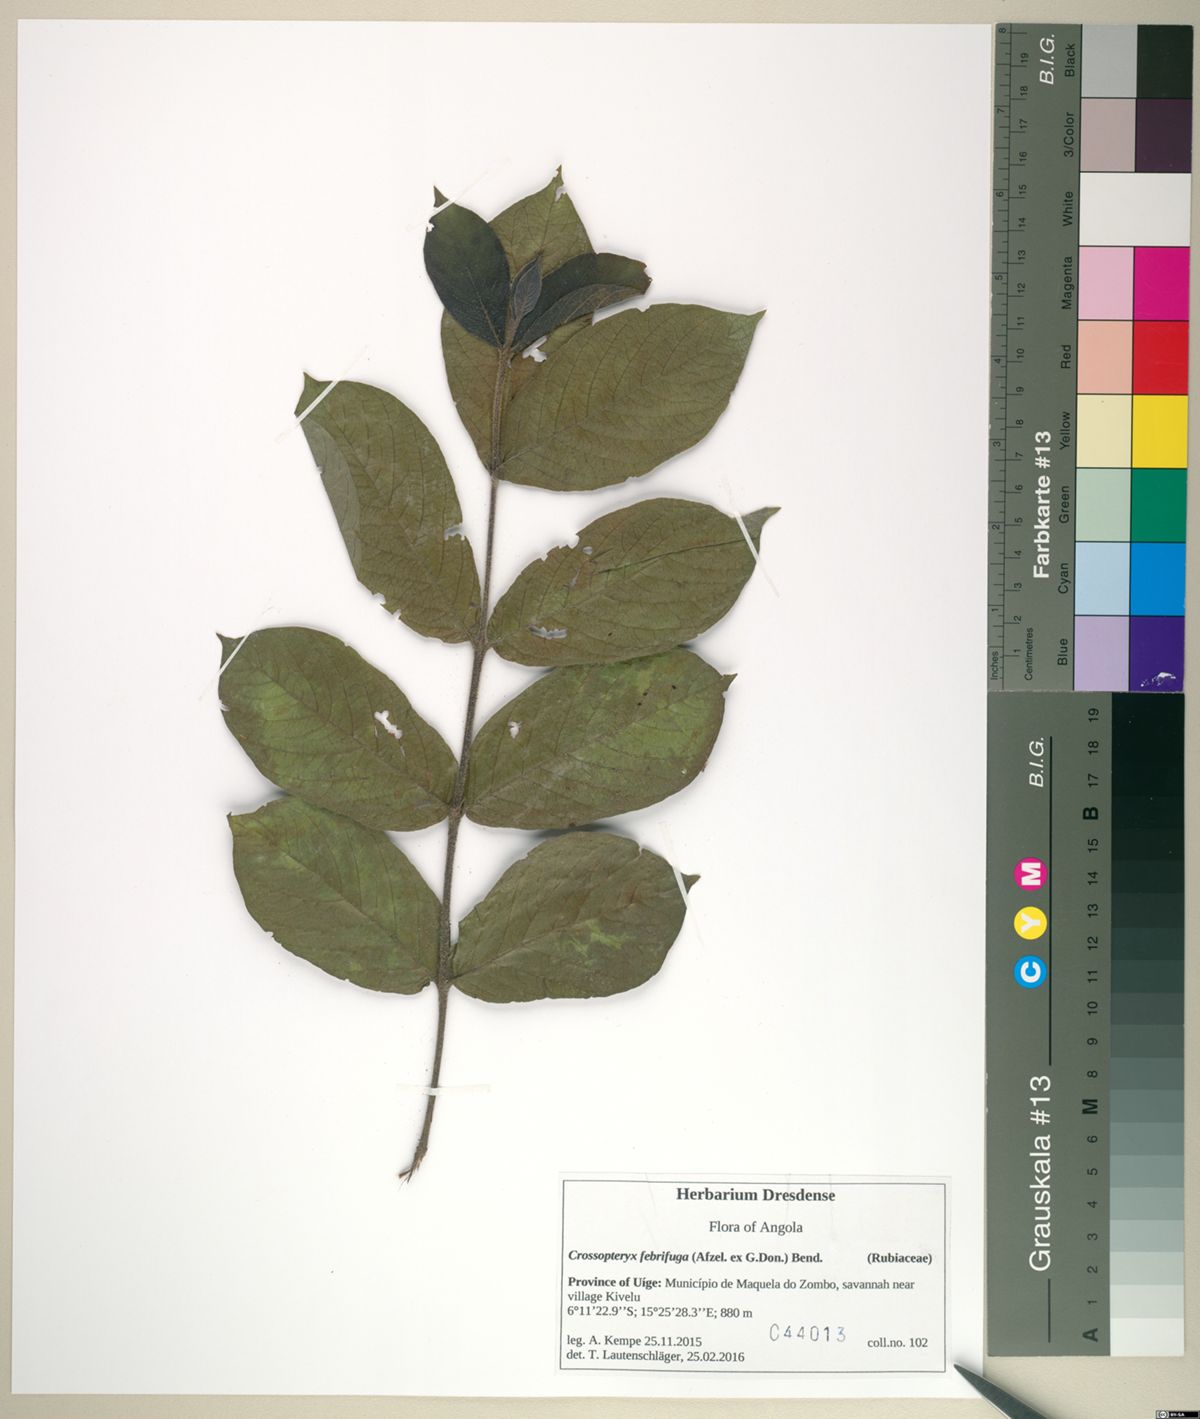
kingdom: Plantae
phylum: Tracheophyta
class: Magnoliopsida
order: Gentianales
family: Rubiaceae
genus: Crossopteryx
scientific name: Crossopteryx febrifuga
